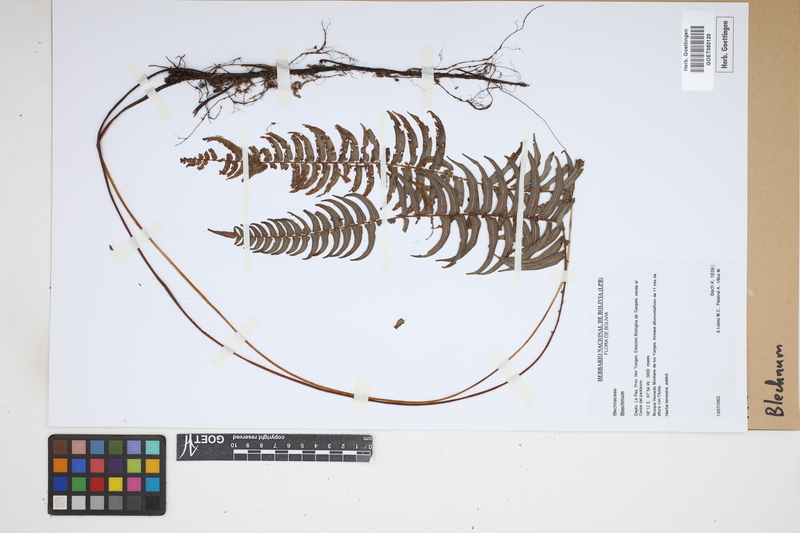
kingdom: Plantae
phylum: Tracheophyta
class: Polypodiopsida
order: Polypodiales
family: Blechnaceae
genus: Blechnum
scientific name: Blechnum
